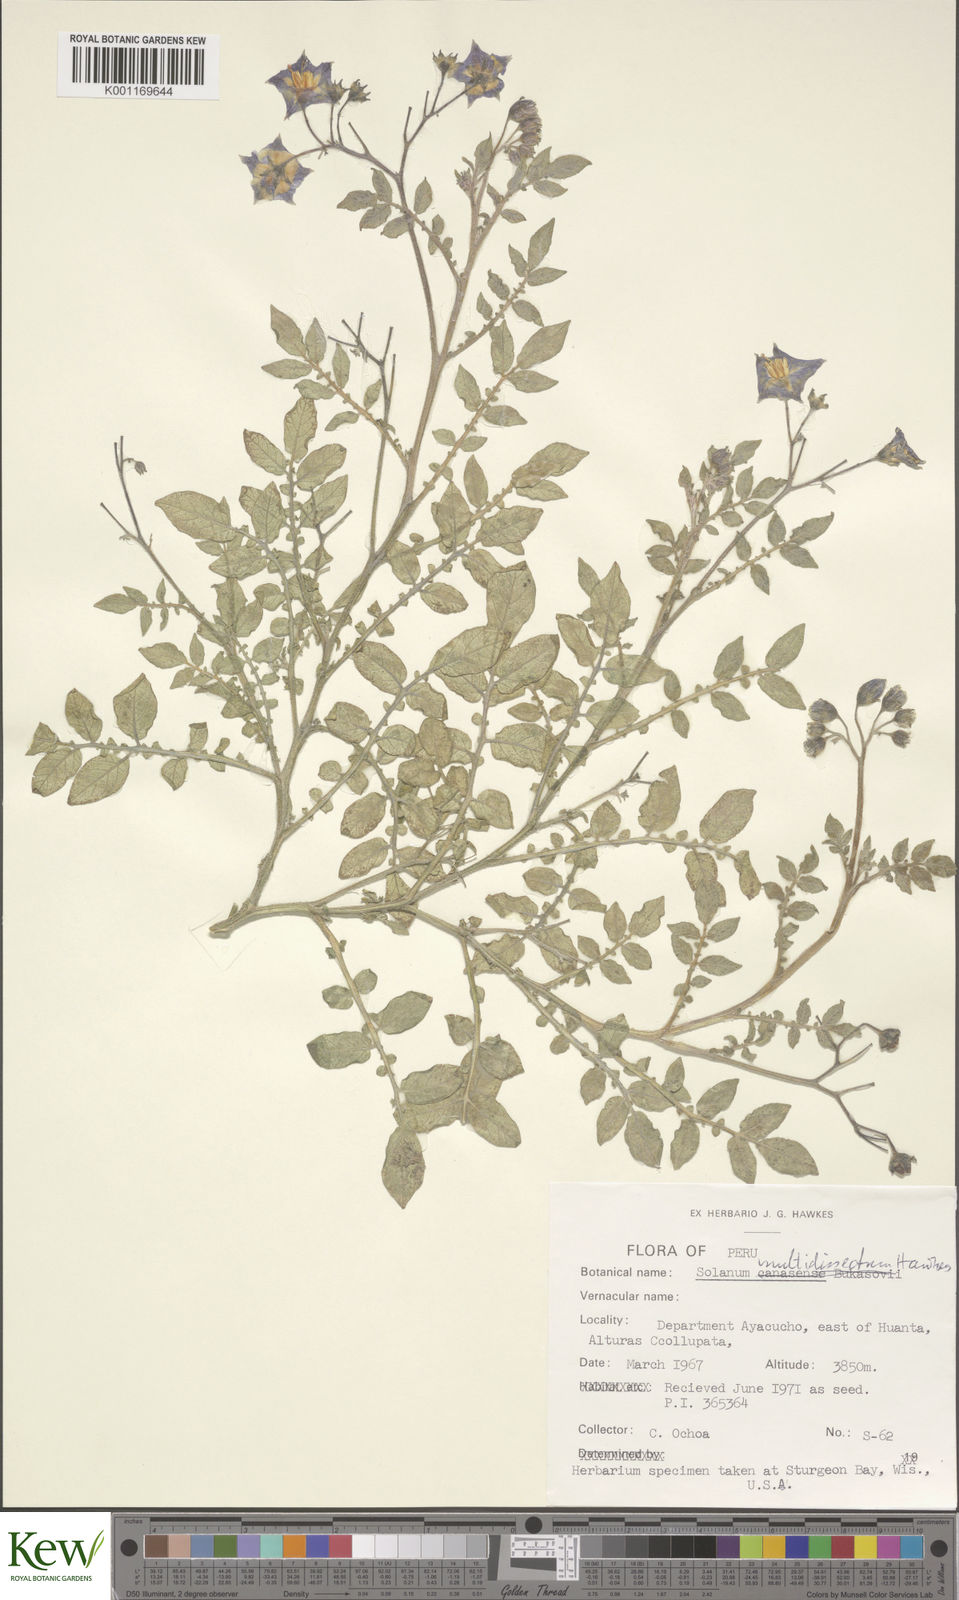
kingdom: Plantae
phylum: Tracheophyta
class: Magnoliopsida
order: Solanales
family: Solanaceae
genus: Solanum
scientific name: Solanum candolleanum
